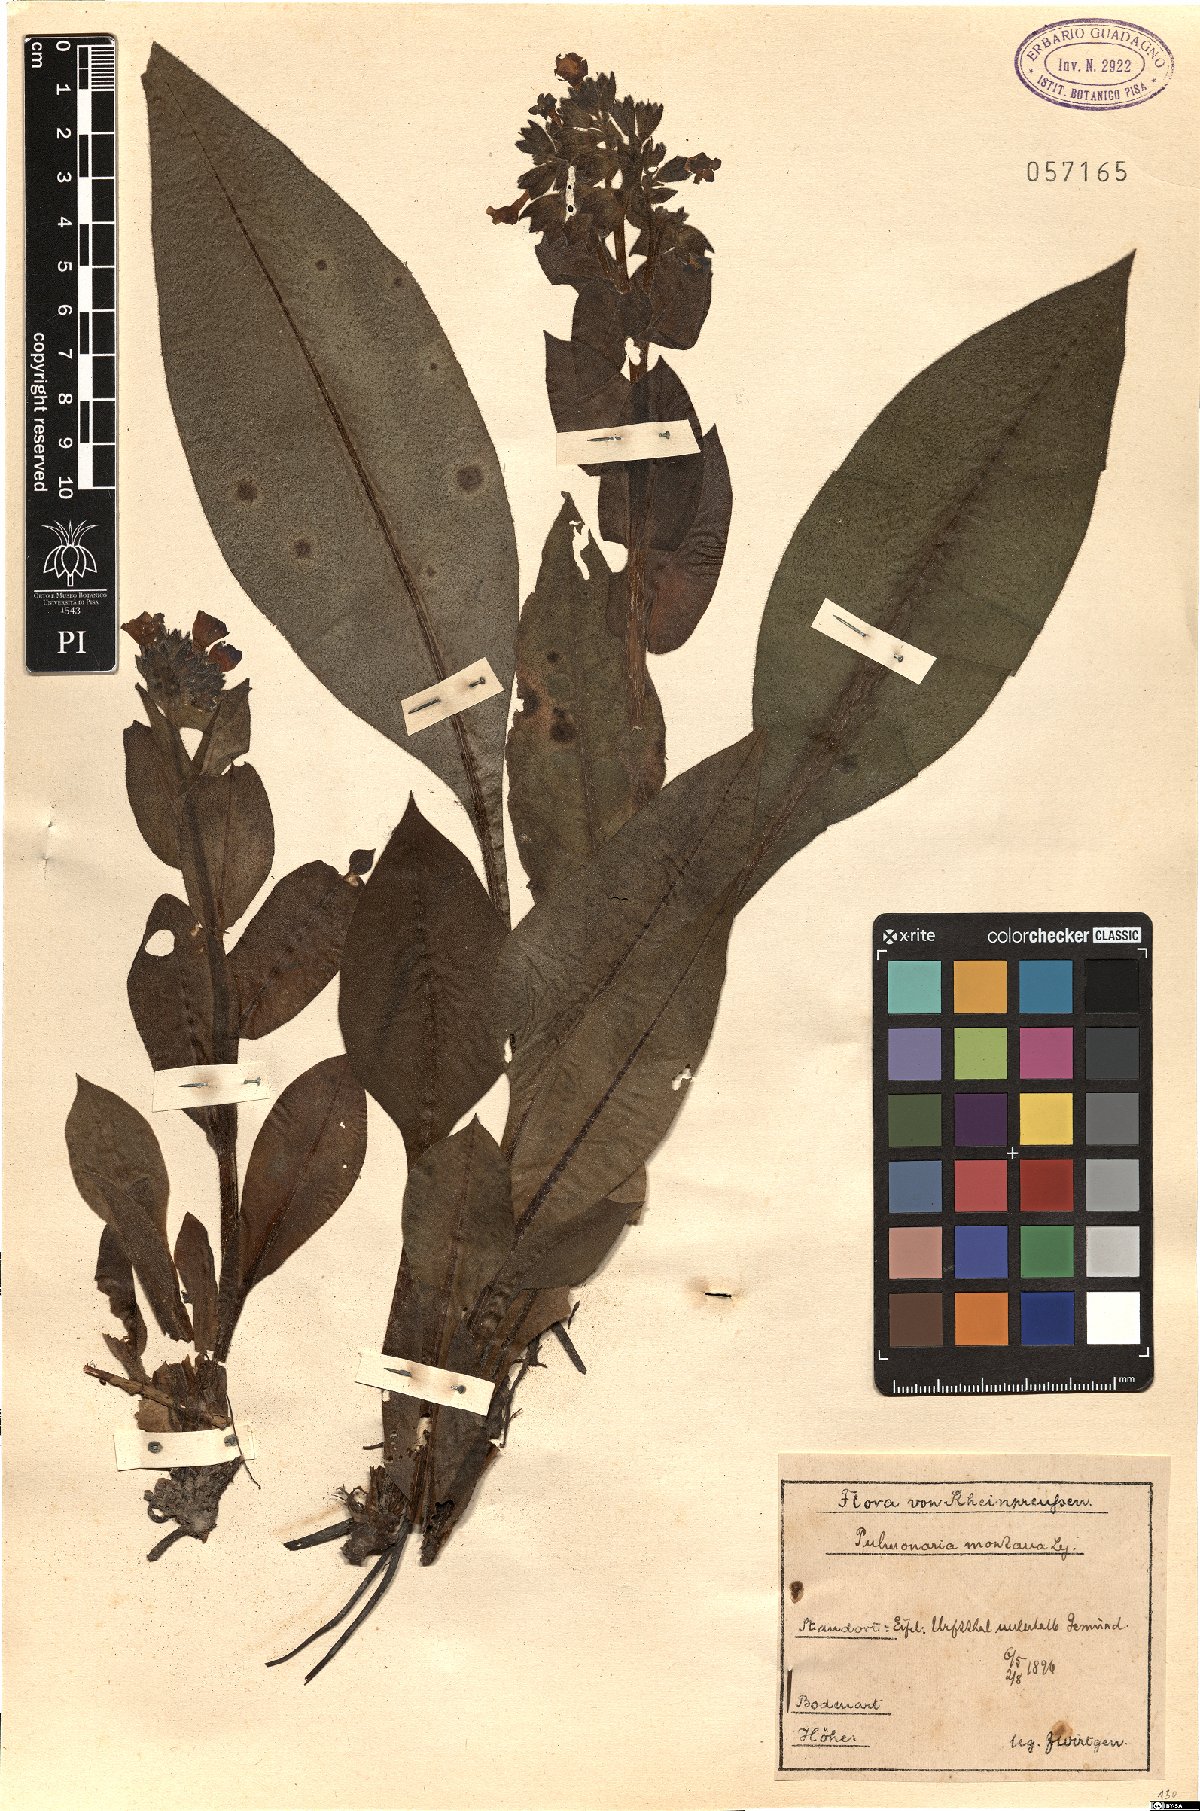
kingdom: Plantae
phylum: Tracheophyta
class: Magnoliopsida
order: Boraginales
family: Boraginaceae
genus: Pulmonaria
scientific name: Pulmonaria montana
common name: Mountain lungwort
